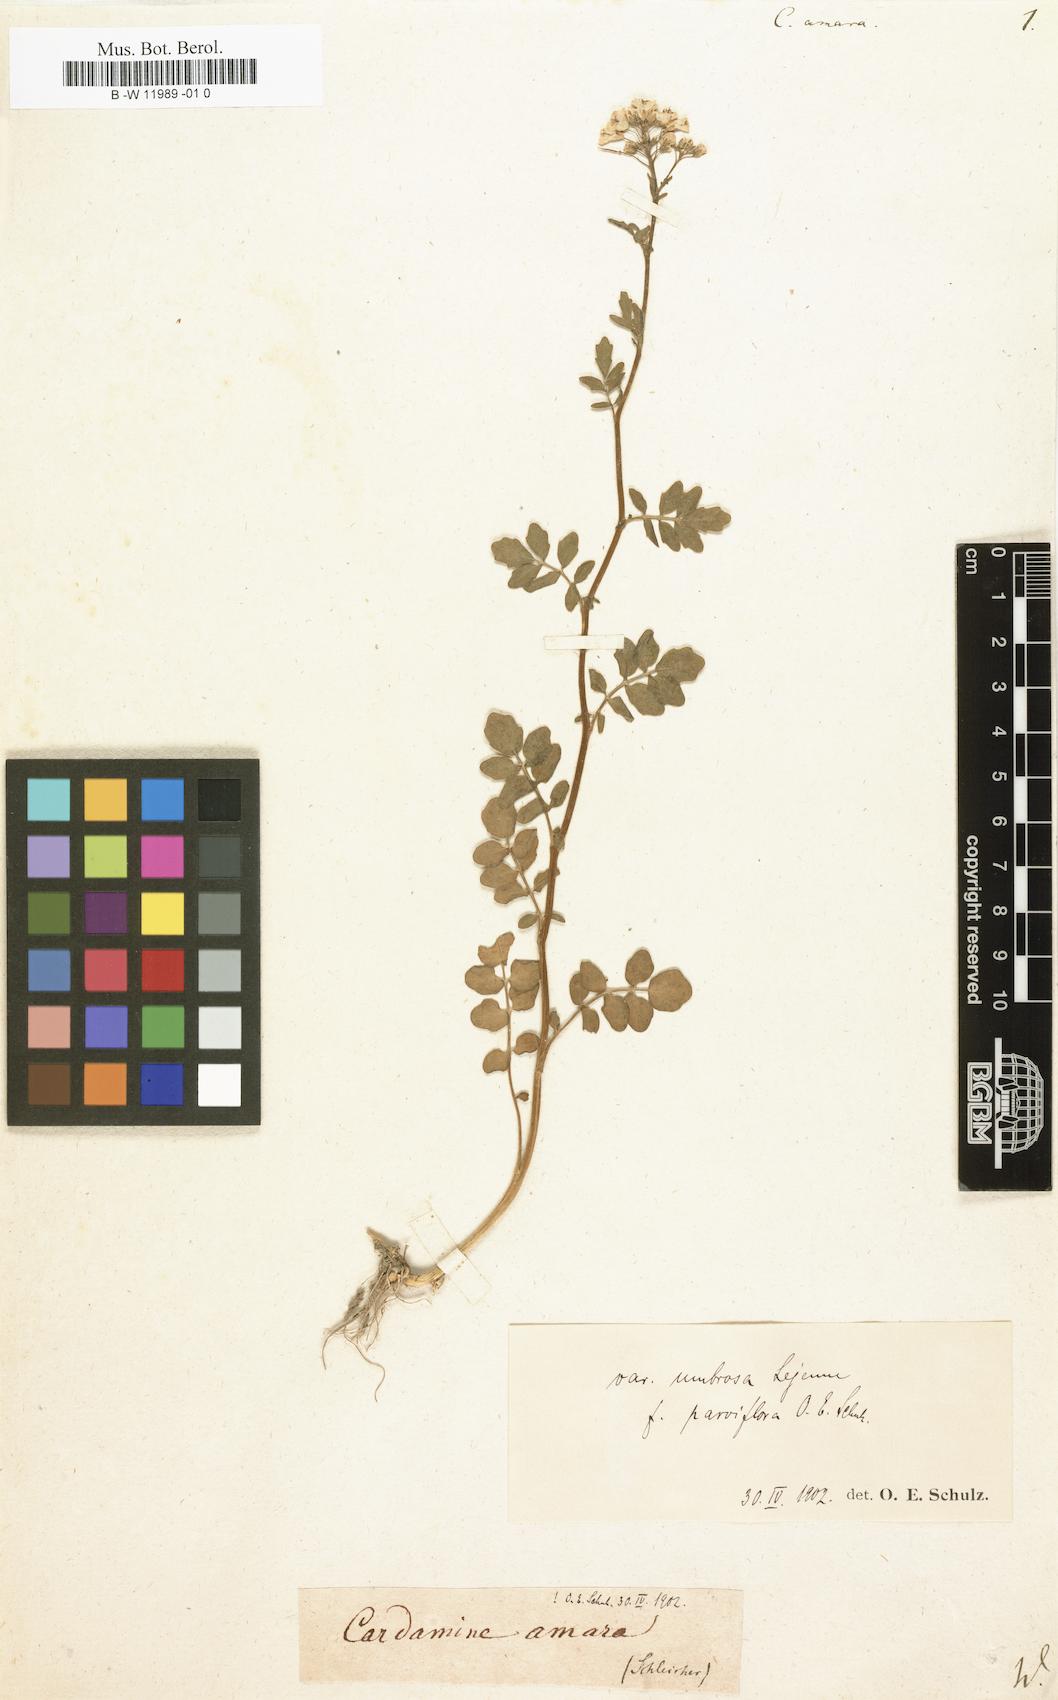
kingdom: Plantae
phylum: Tracheophyta
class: Magnoliopsida
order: Brassicales
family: Brassicaceae
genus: Cardamine
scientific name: Cardamine amara
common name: Large bitter-cress
